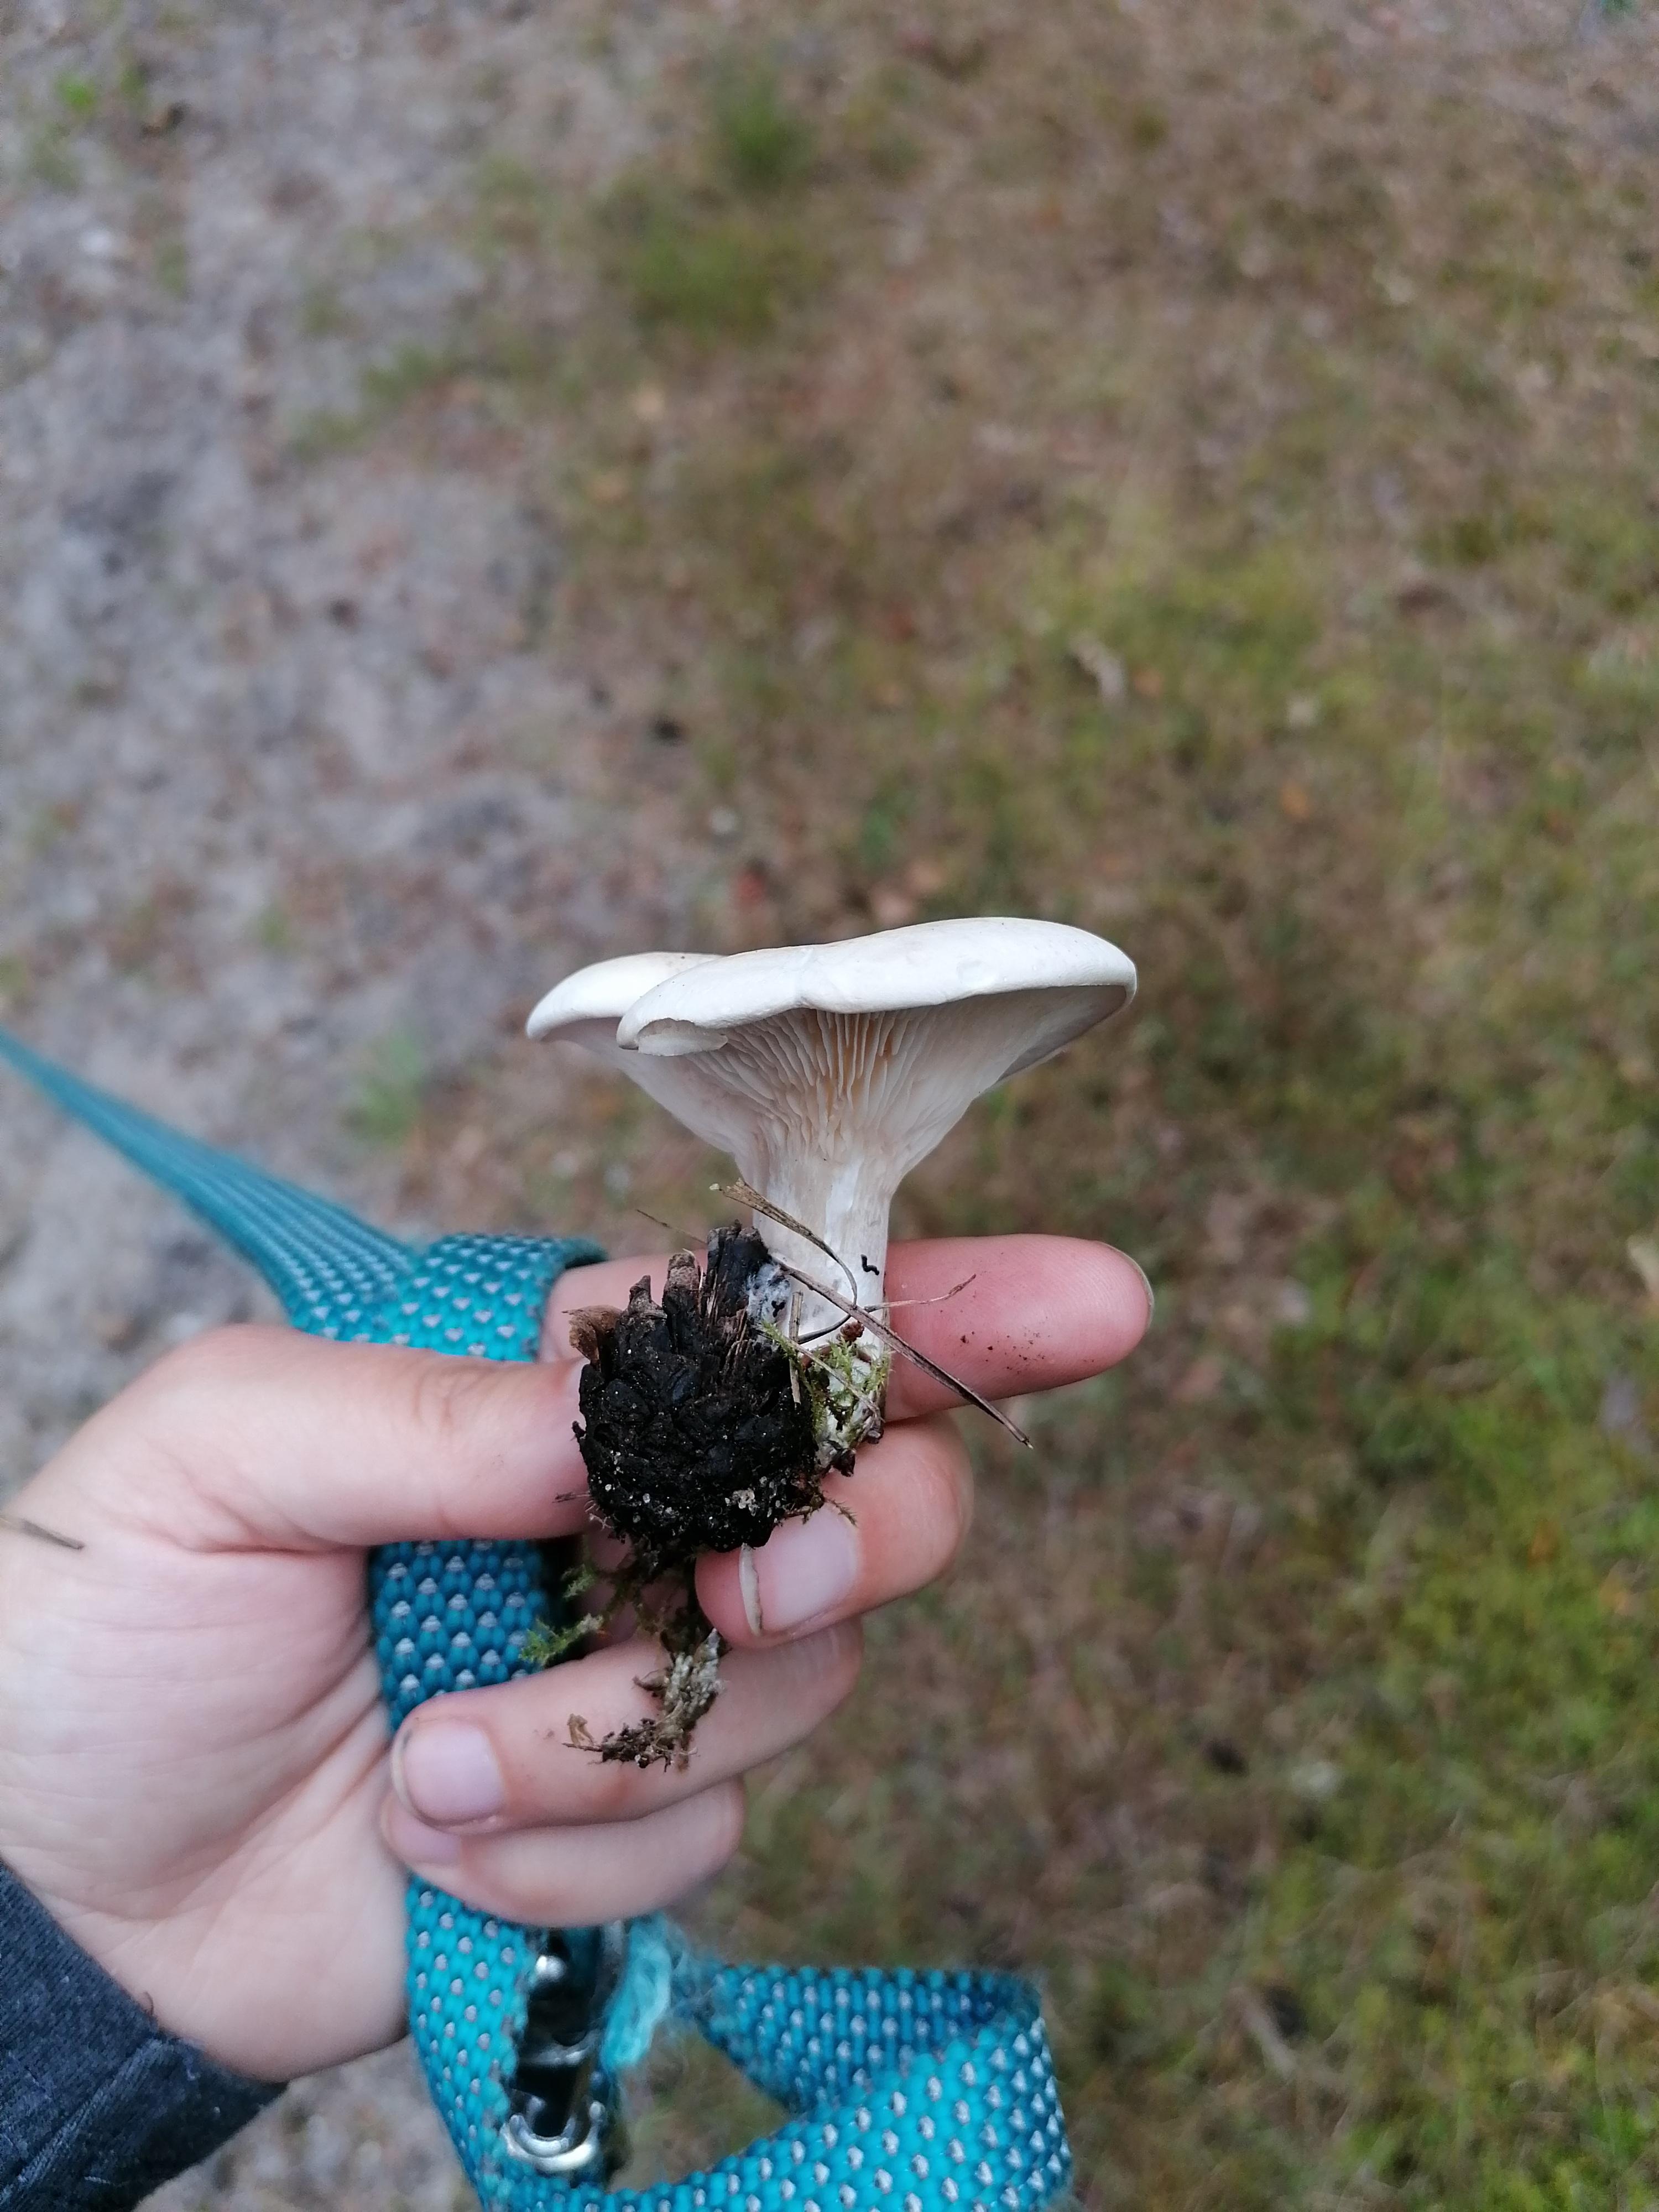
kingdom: Fungi
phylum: Basidiomycota
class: Agaricomycetes
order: Agaricales
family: Entolomataceae
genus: Clitopilus
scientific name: Clitopilus prunulus
